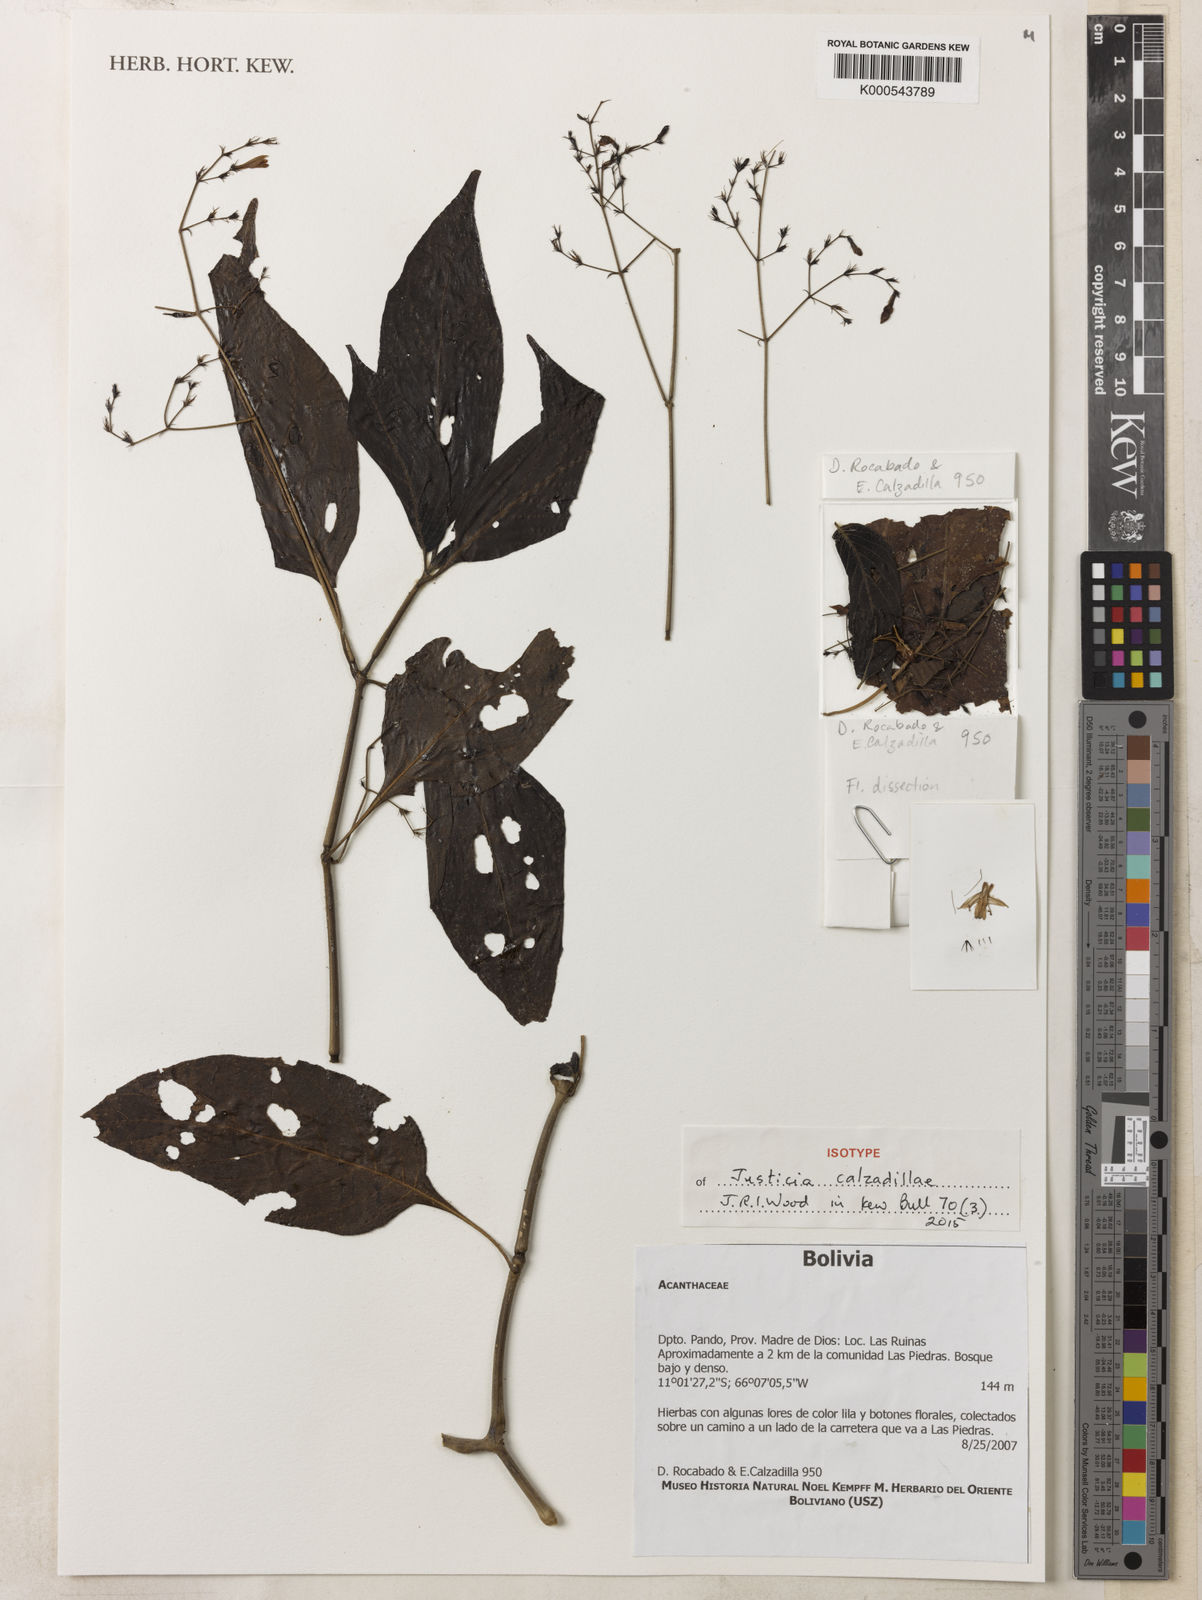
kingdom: Plantae
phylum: Tracheophyta
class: Magnoliopsida
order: Lamiales
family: Acanthaceae
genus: Justicia
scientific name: Justicia calzadillae
